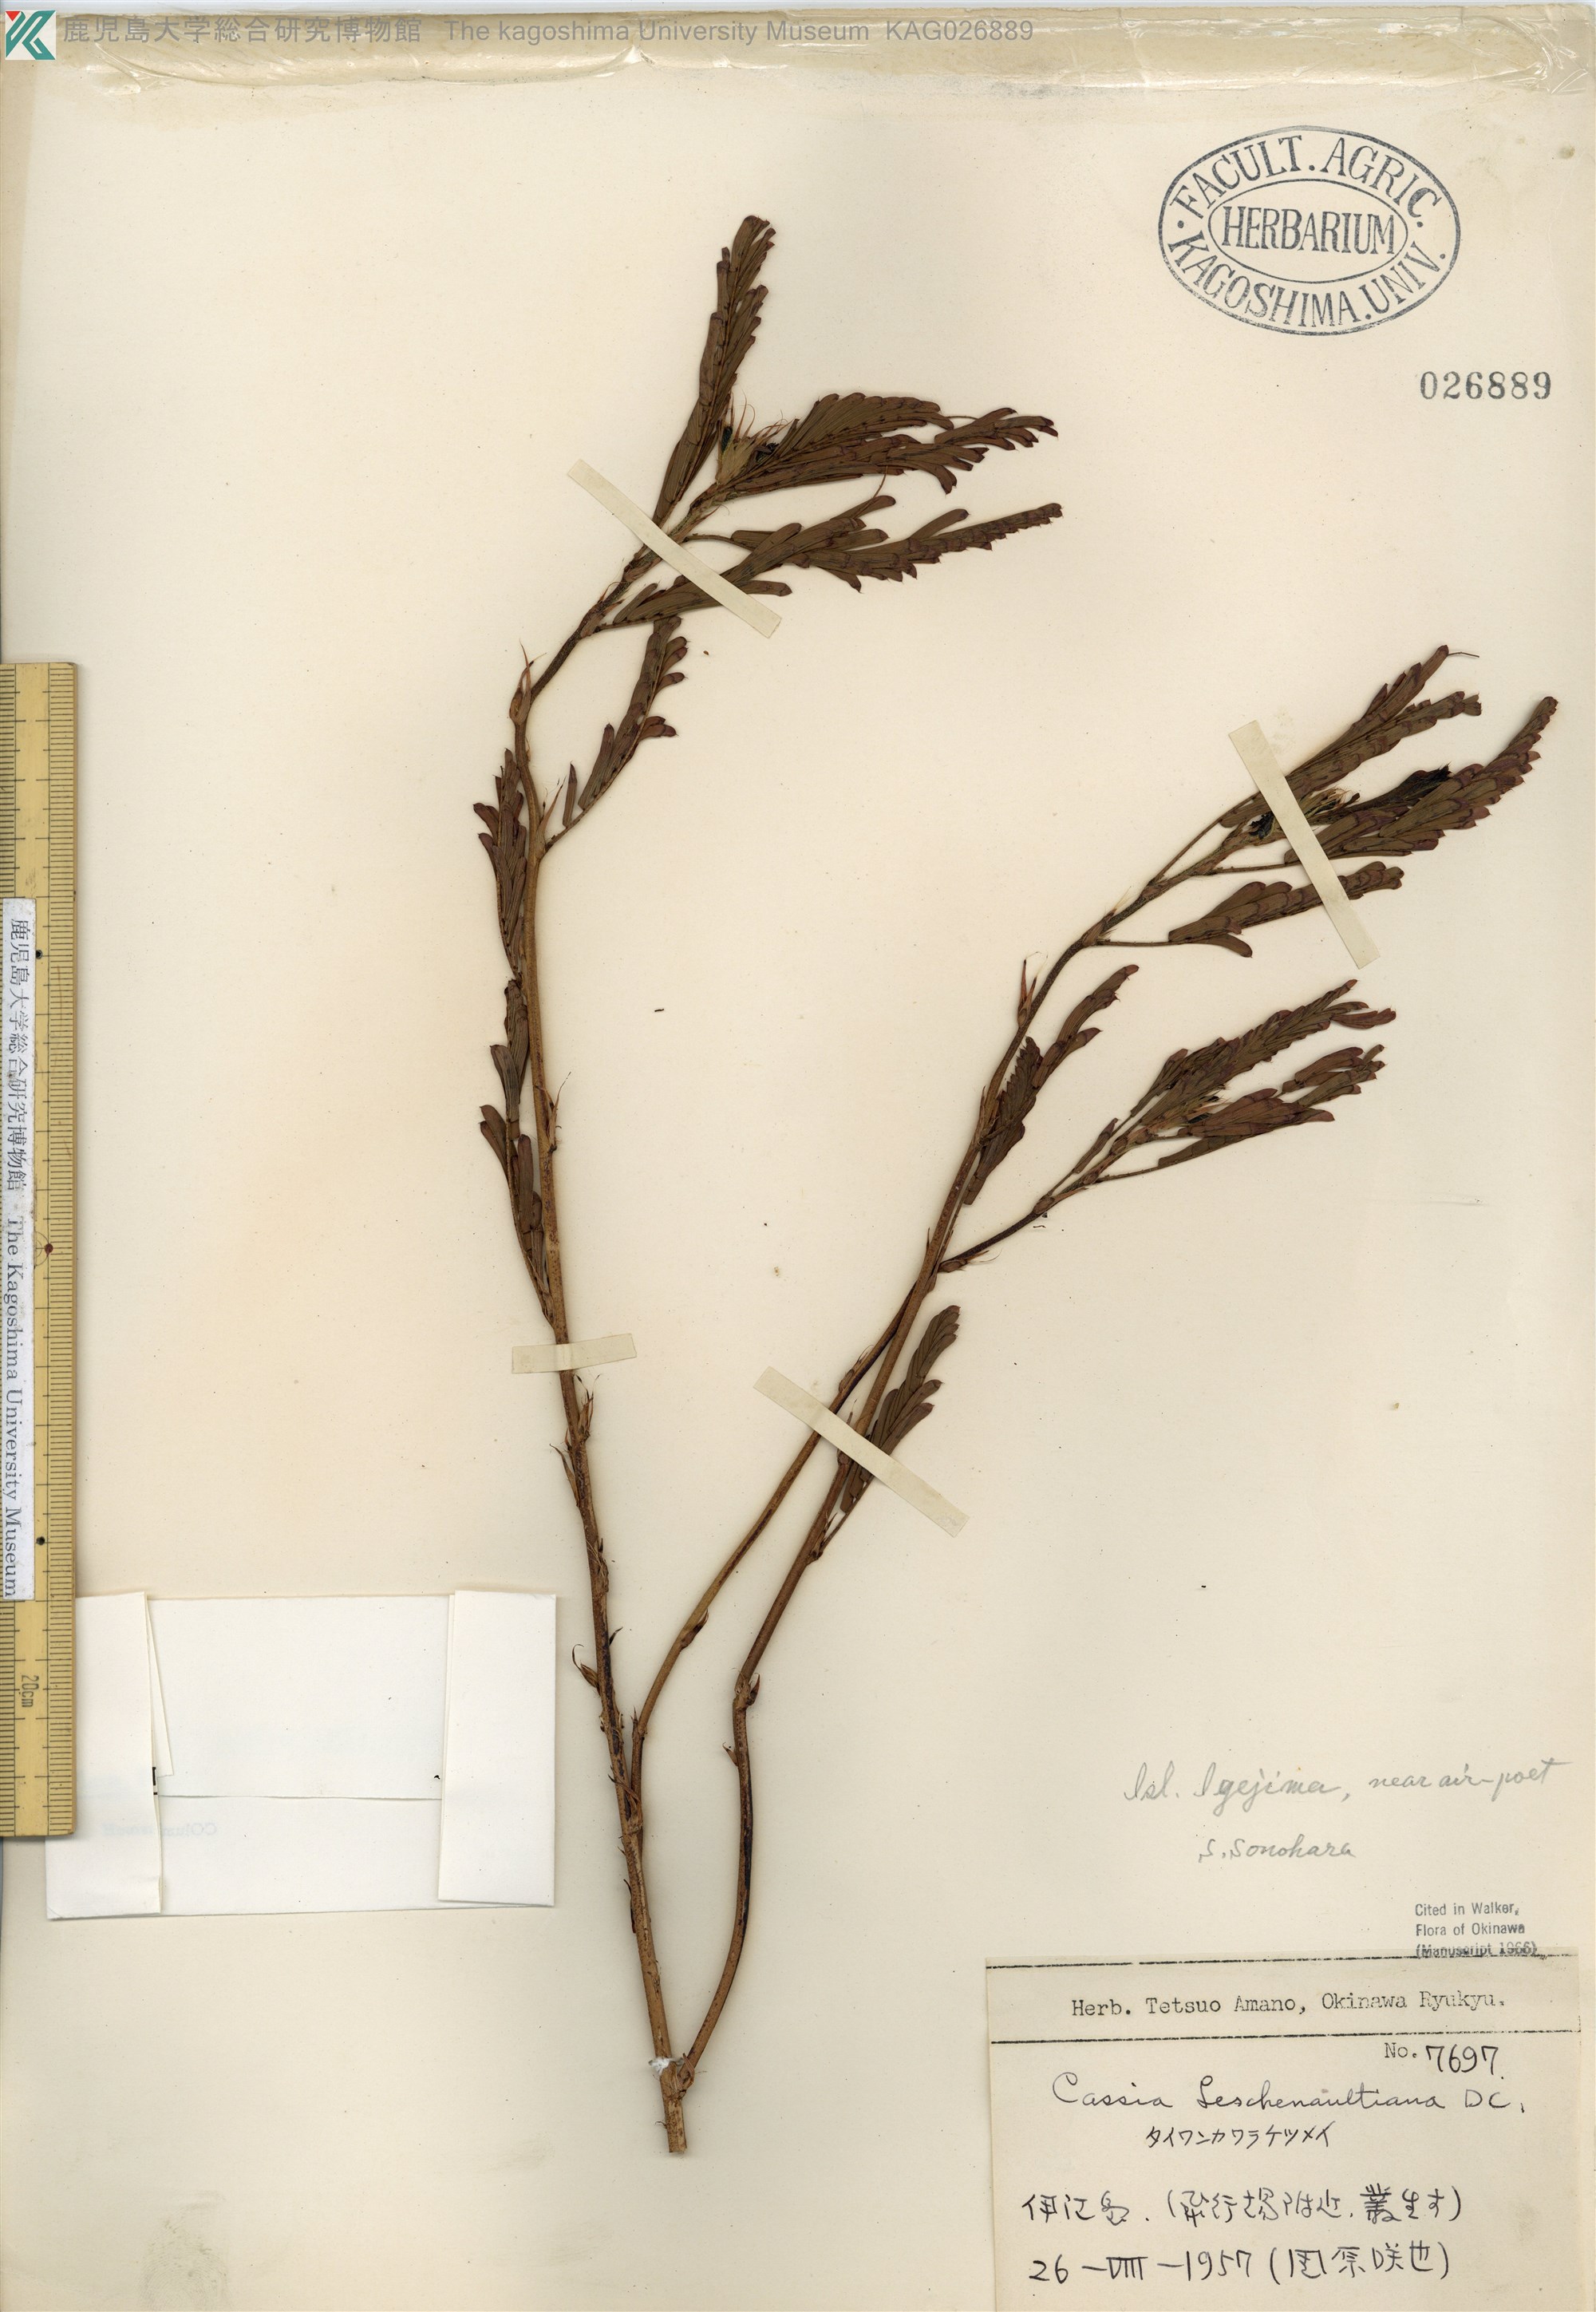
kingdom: Plantae
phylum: Tracheophyta
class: Magnoliopsida
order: Fabales
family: Fabaceae
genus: Chamaecrista
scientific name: Chamaecrista leschenaultiana
